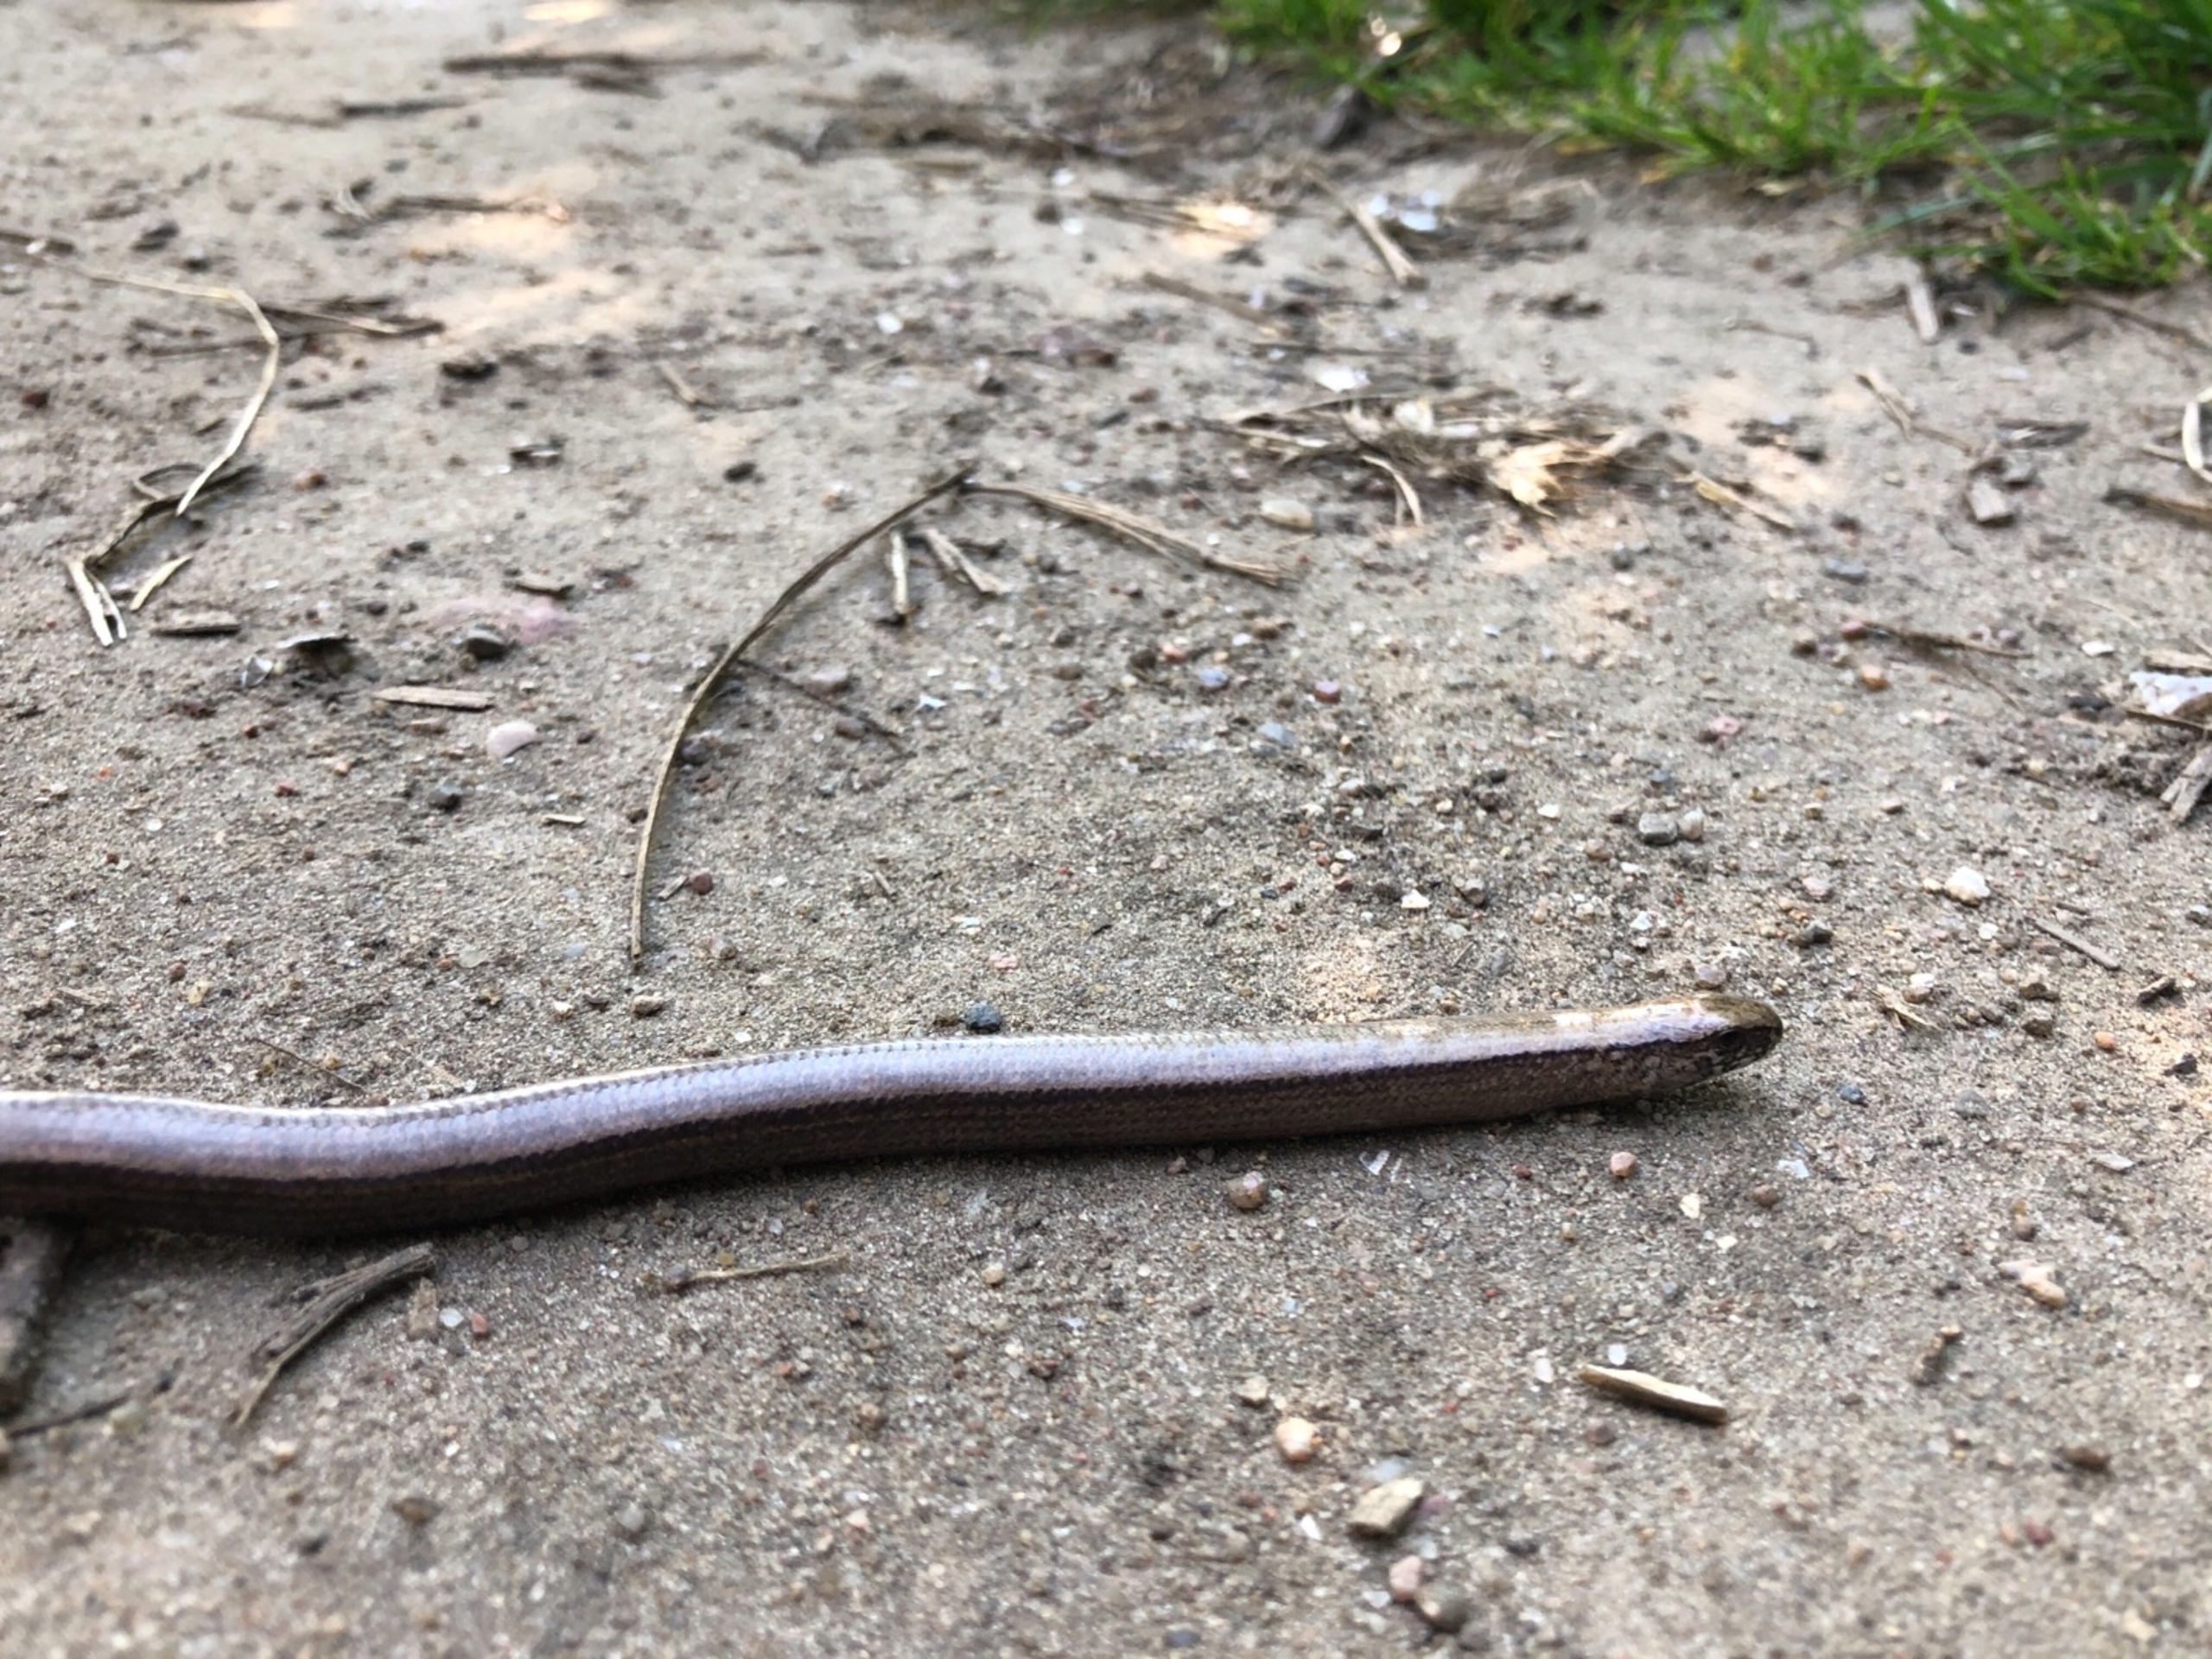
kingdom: Animalia
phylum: Chordata
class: Squamata
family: Anguidae
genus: Anguis
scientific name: Anguis fragilis
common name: Stålorm
